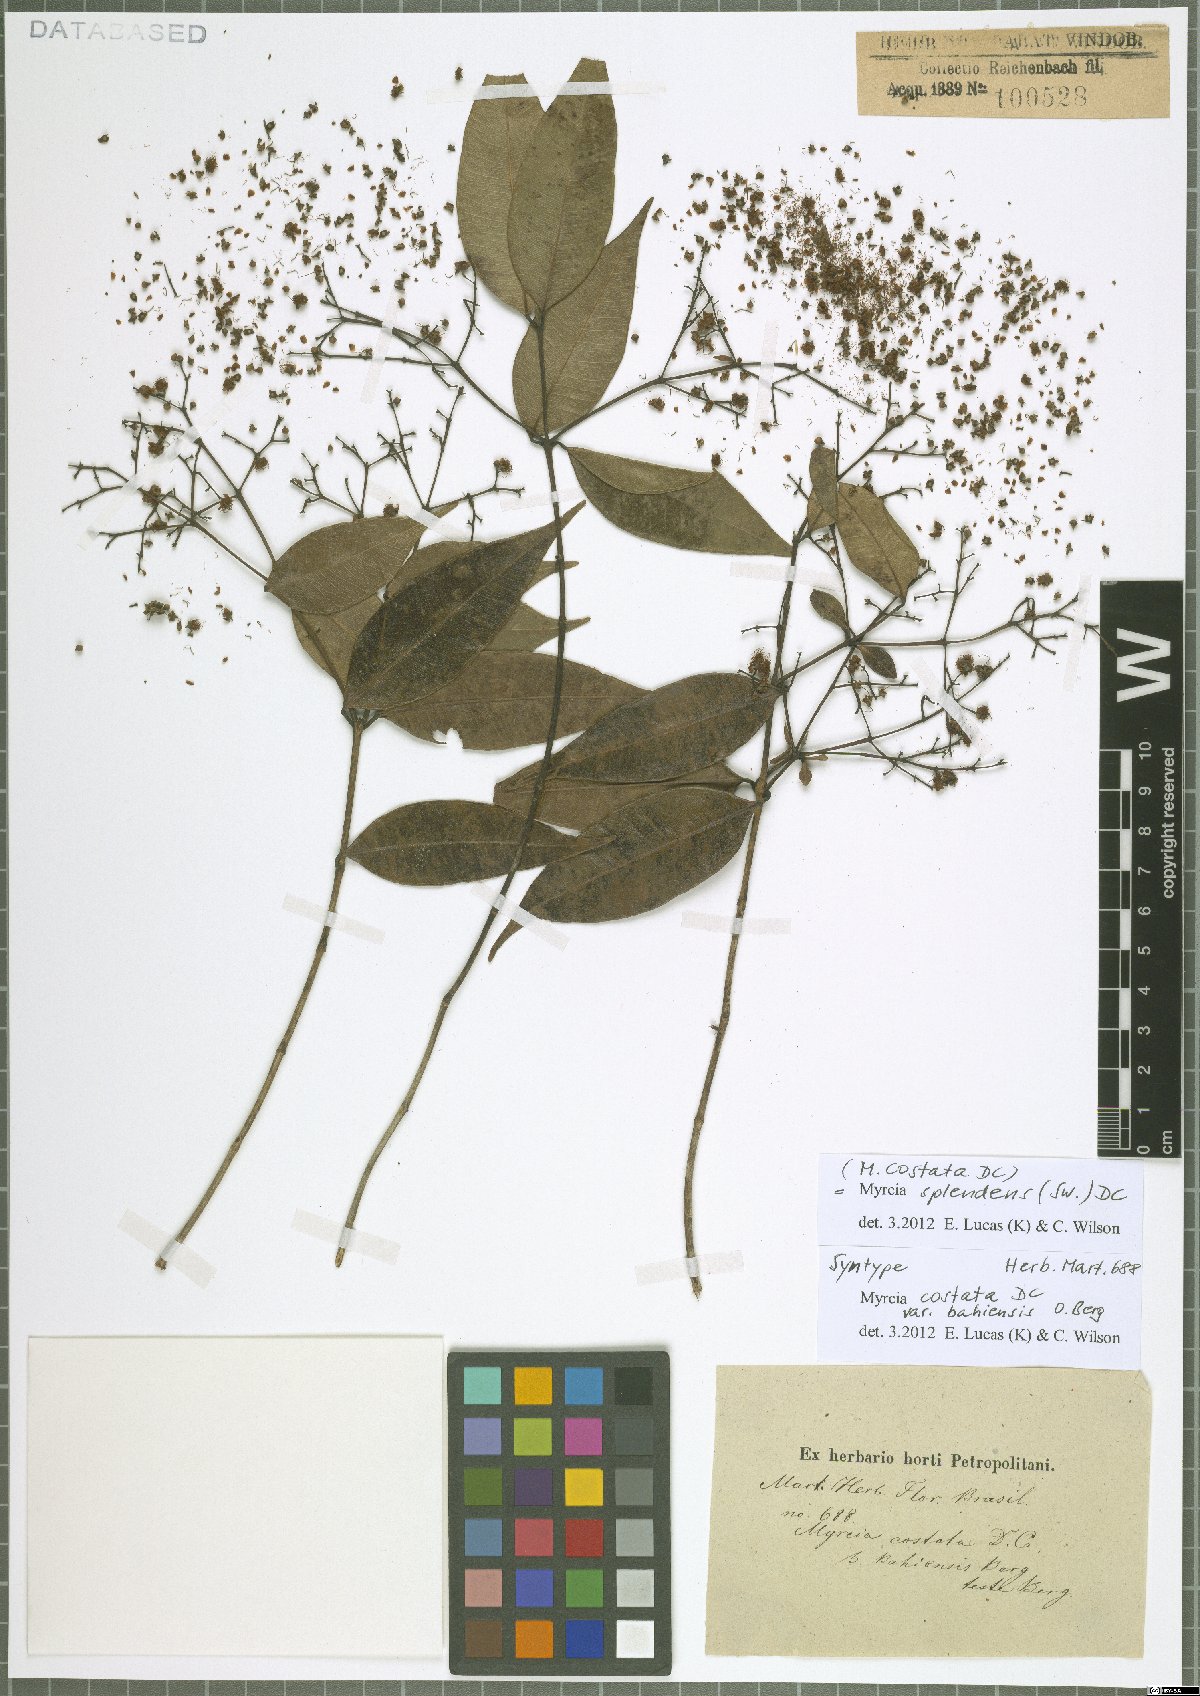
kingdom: Plantae
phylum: Tracheophyta
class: Magnoliopsida
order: Myrtales
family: Myrtaceae
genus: Myrcia
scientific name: Myrcia splendens
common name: Surinam cherry
